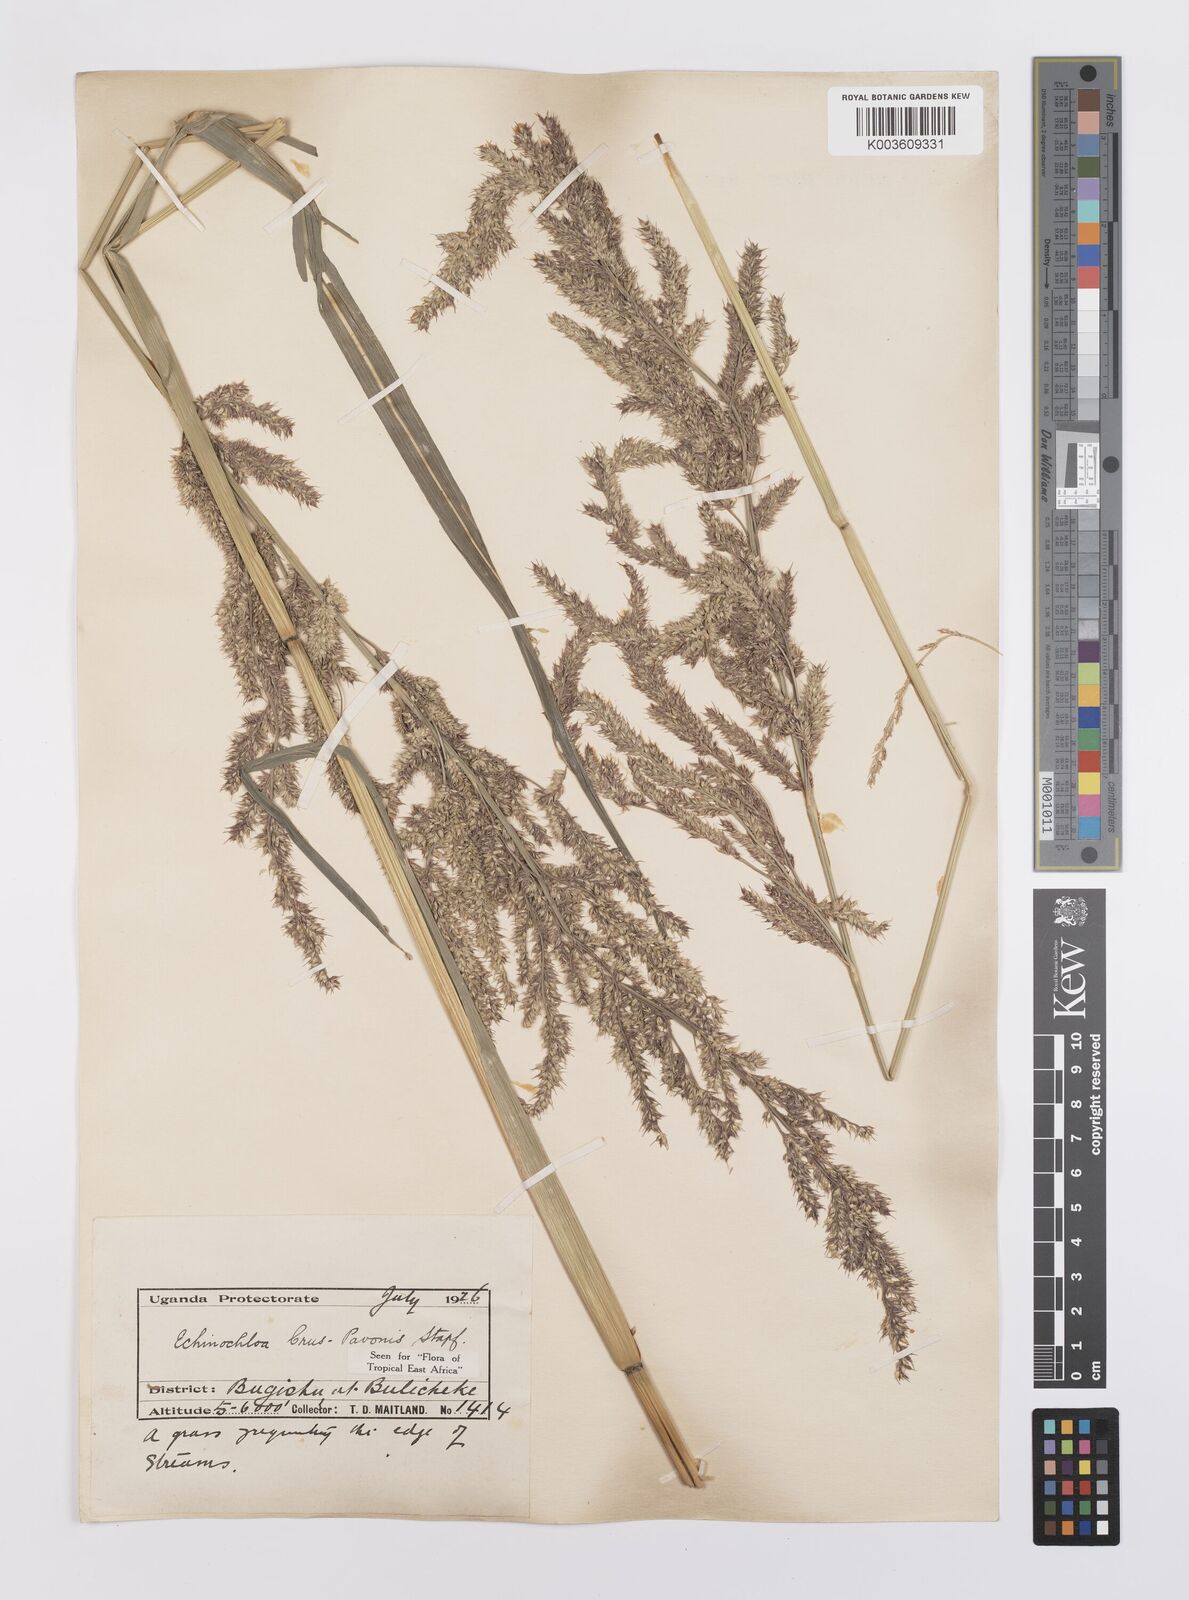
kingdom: Plantae
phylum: Tracheophyta
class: Liliopsida
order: Poales
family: Poaceae
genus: Echinochloa
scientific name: Echinochloa crus-pavonis
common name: Gulf cockspur grass
